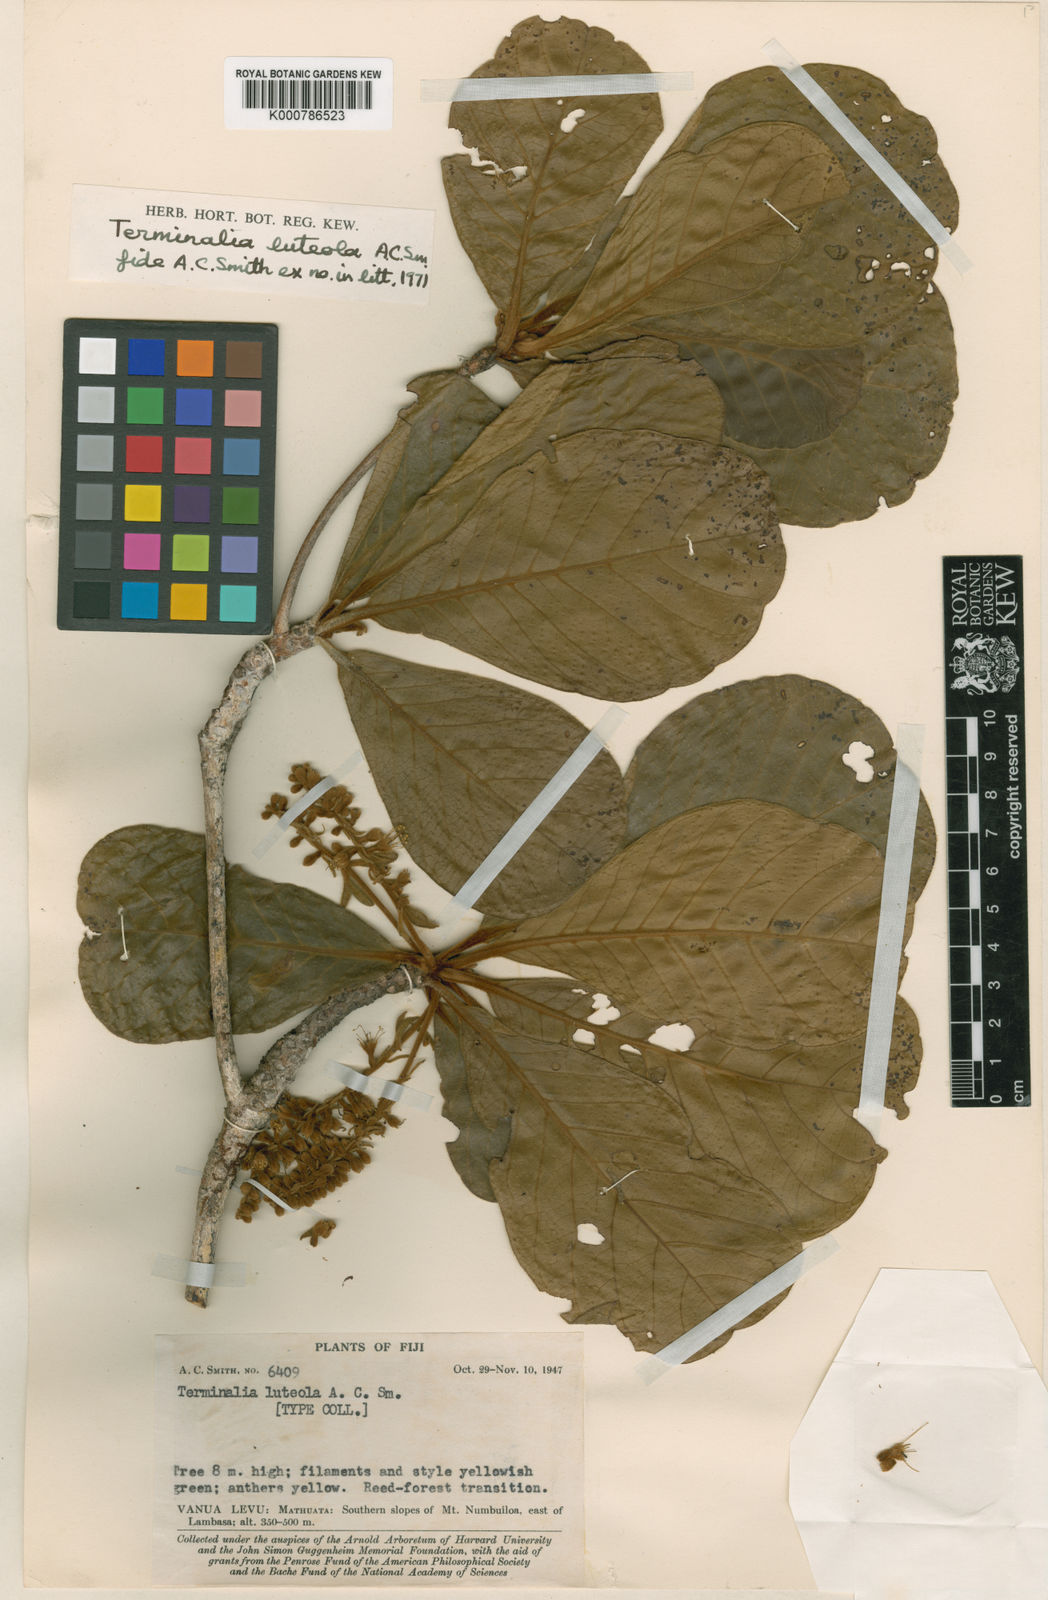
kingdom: Plantae
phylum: Tracheophyta
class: Magnoliopsida
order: Myrtales
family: Combretaceae
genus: Terminalia
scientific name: Terminalia luteola
